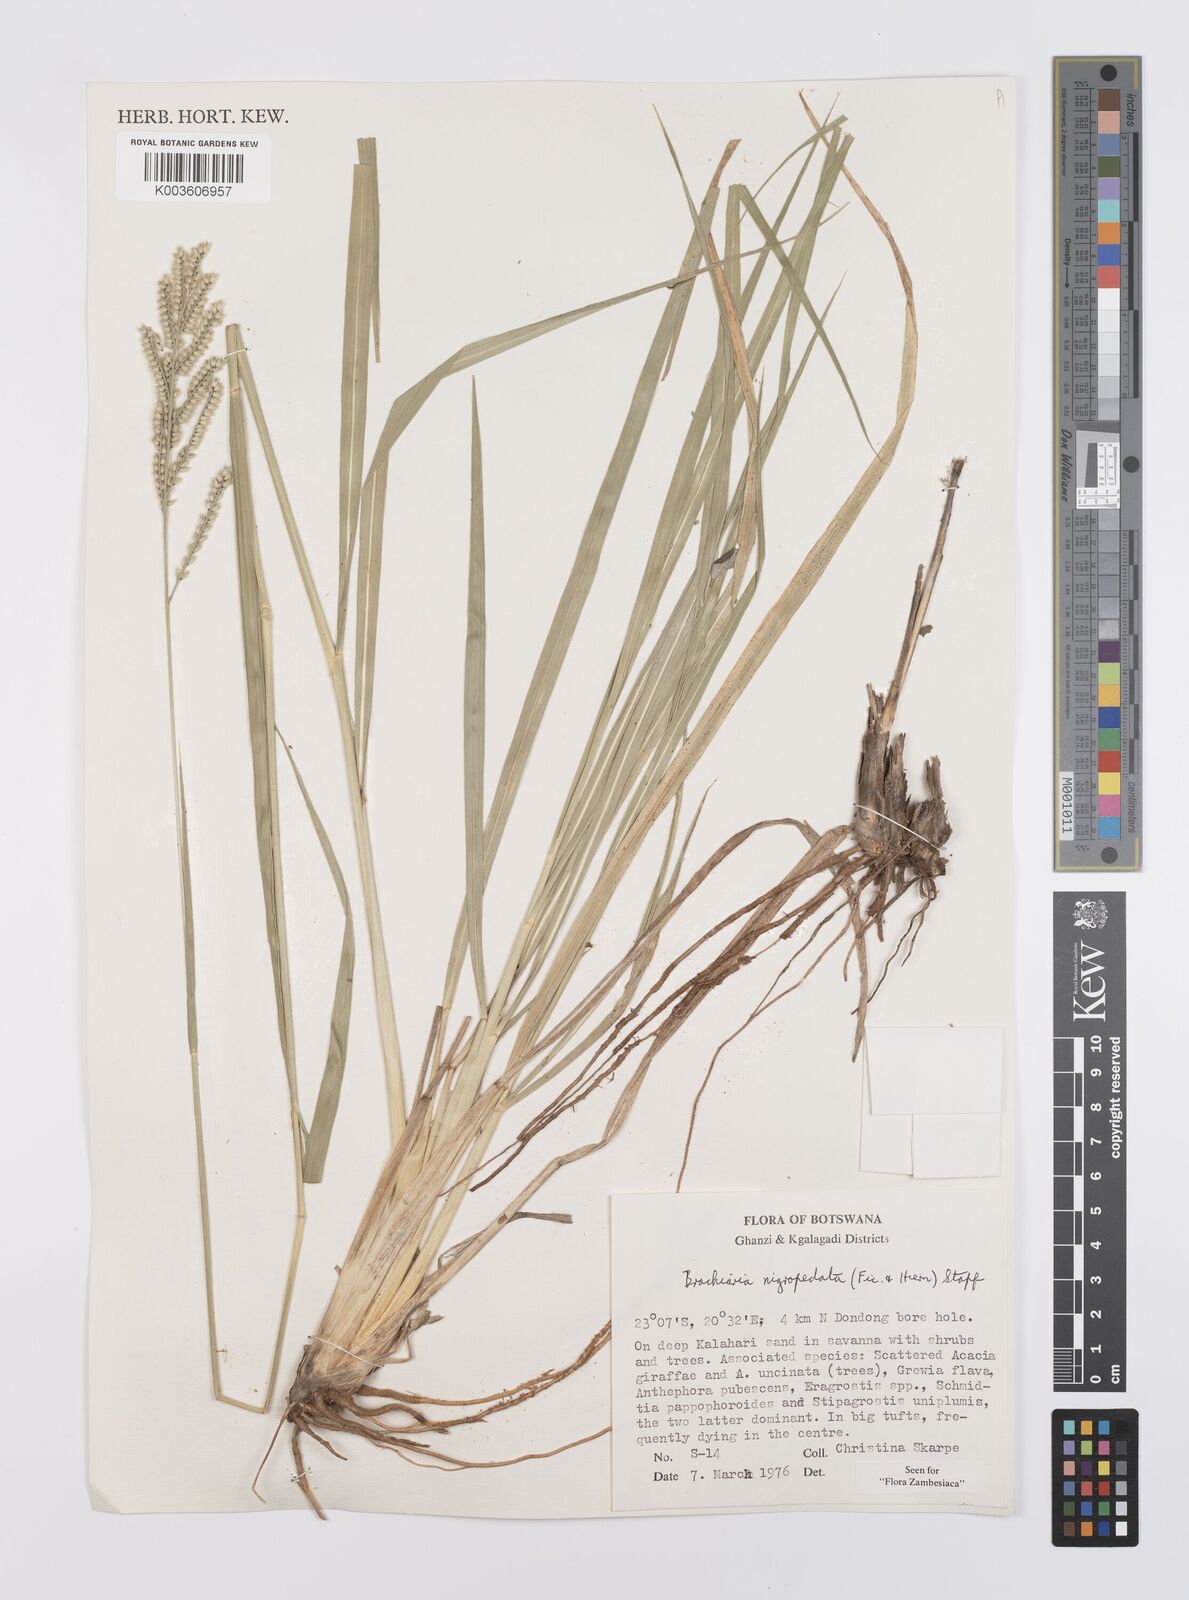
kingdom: Plantae
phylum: Tracheophyta
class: Liliopsida
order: Poales
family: Poaceae
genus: Urochloa
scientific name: Urochloa nigropedata
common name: Spotted signal grass
